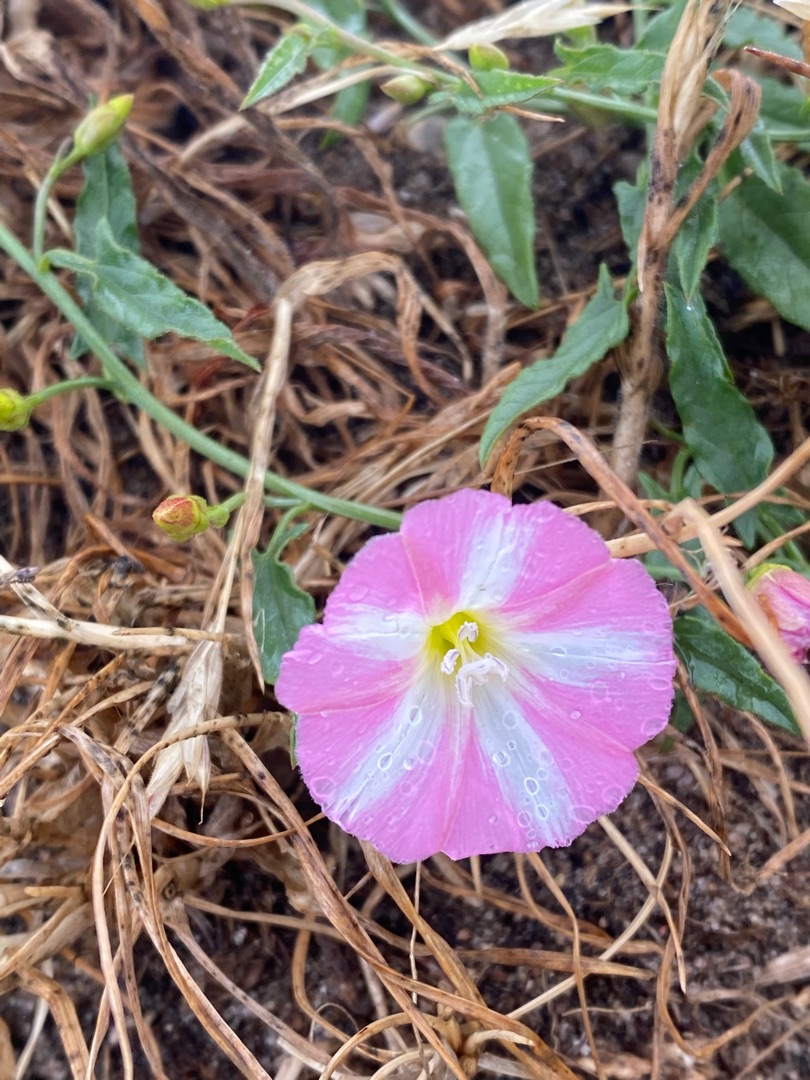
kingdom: Plantae
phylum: Tracheophyta
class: Magnoliopsida
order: Solanales
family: Convolvulaceae
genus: Convolvulus
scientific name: Convolvulus arvensis
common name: Ager-snerle
